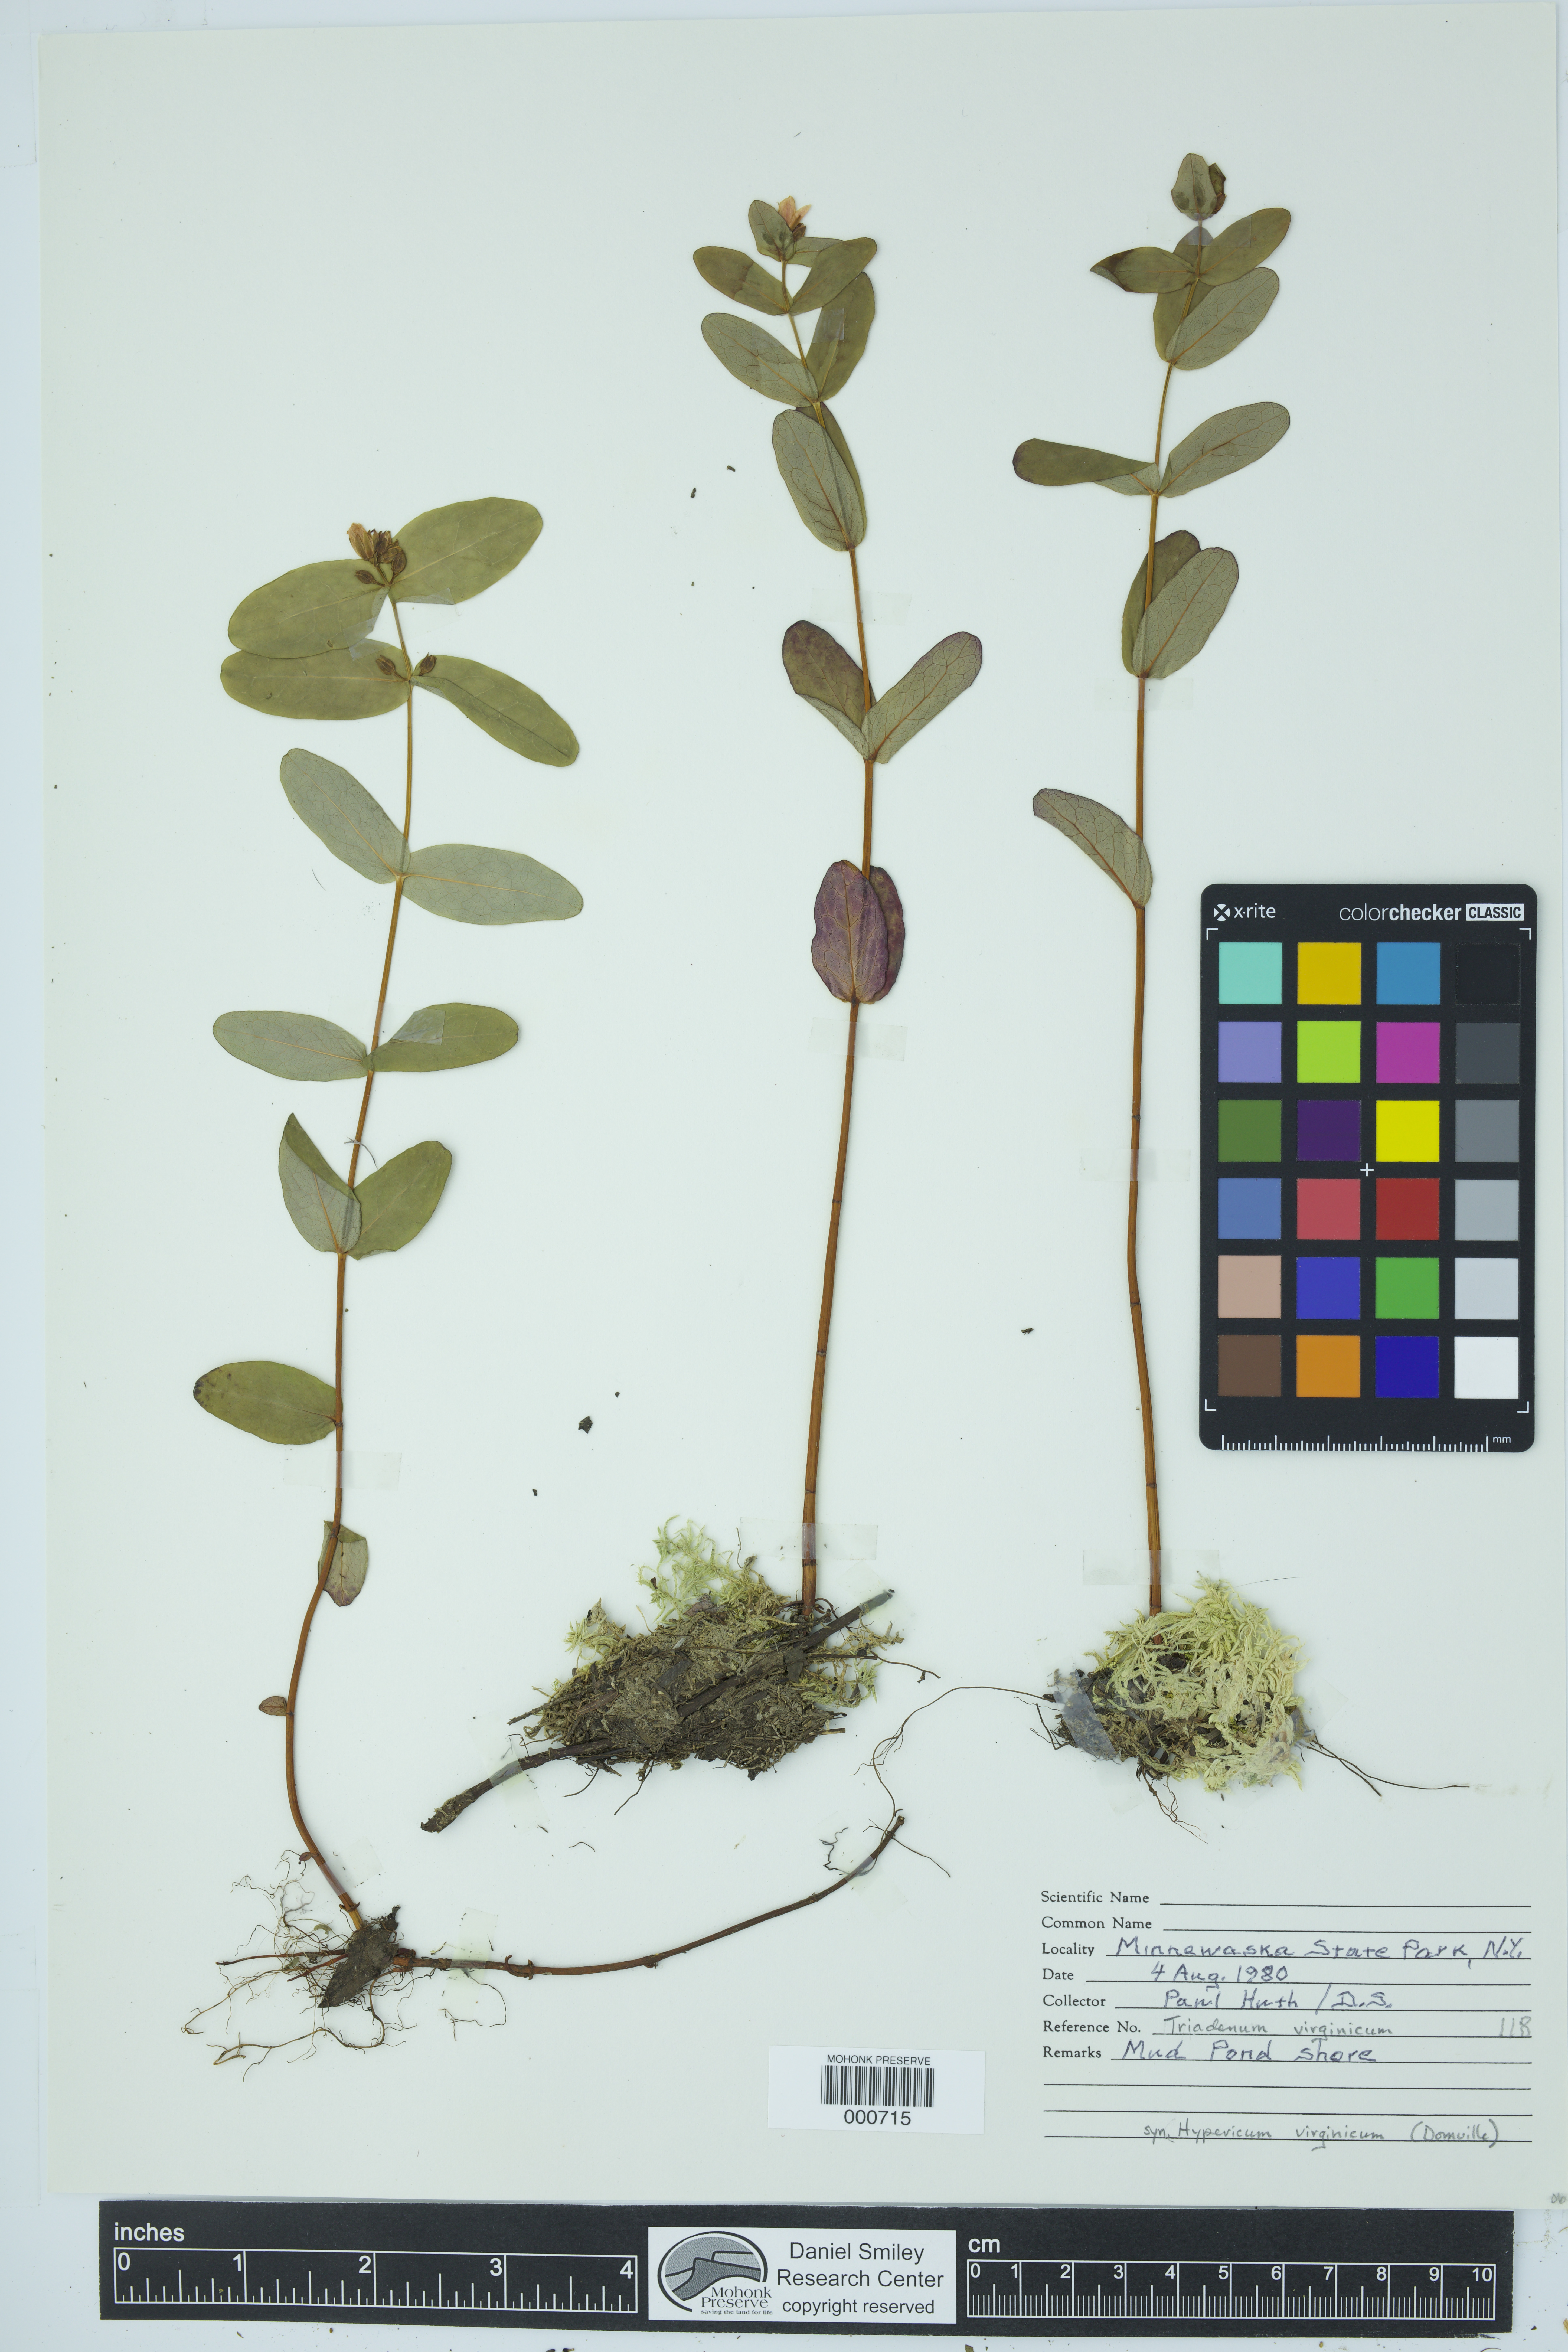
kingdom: Plantae
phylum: Tracheophyta
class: Magnoliopsida
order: Malpighiales
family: Hypericaceae
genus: Triadenum
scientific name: Triadenum virginicum
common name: Marsh st. john's-wort
